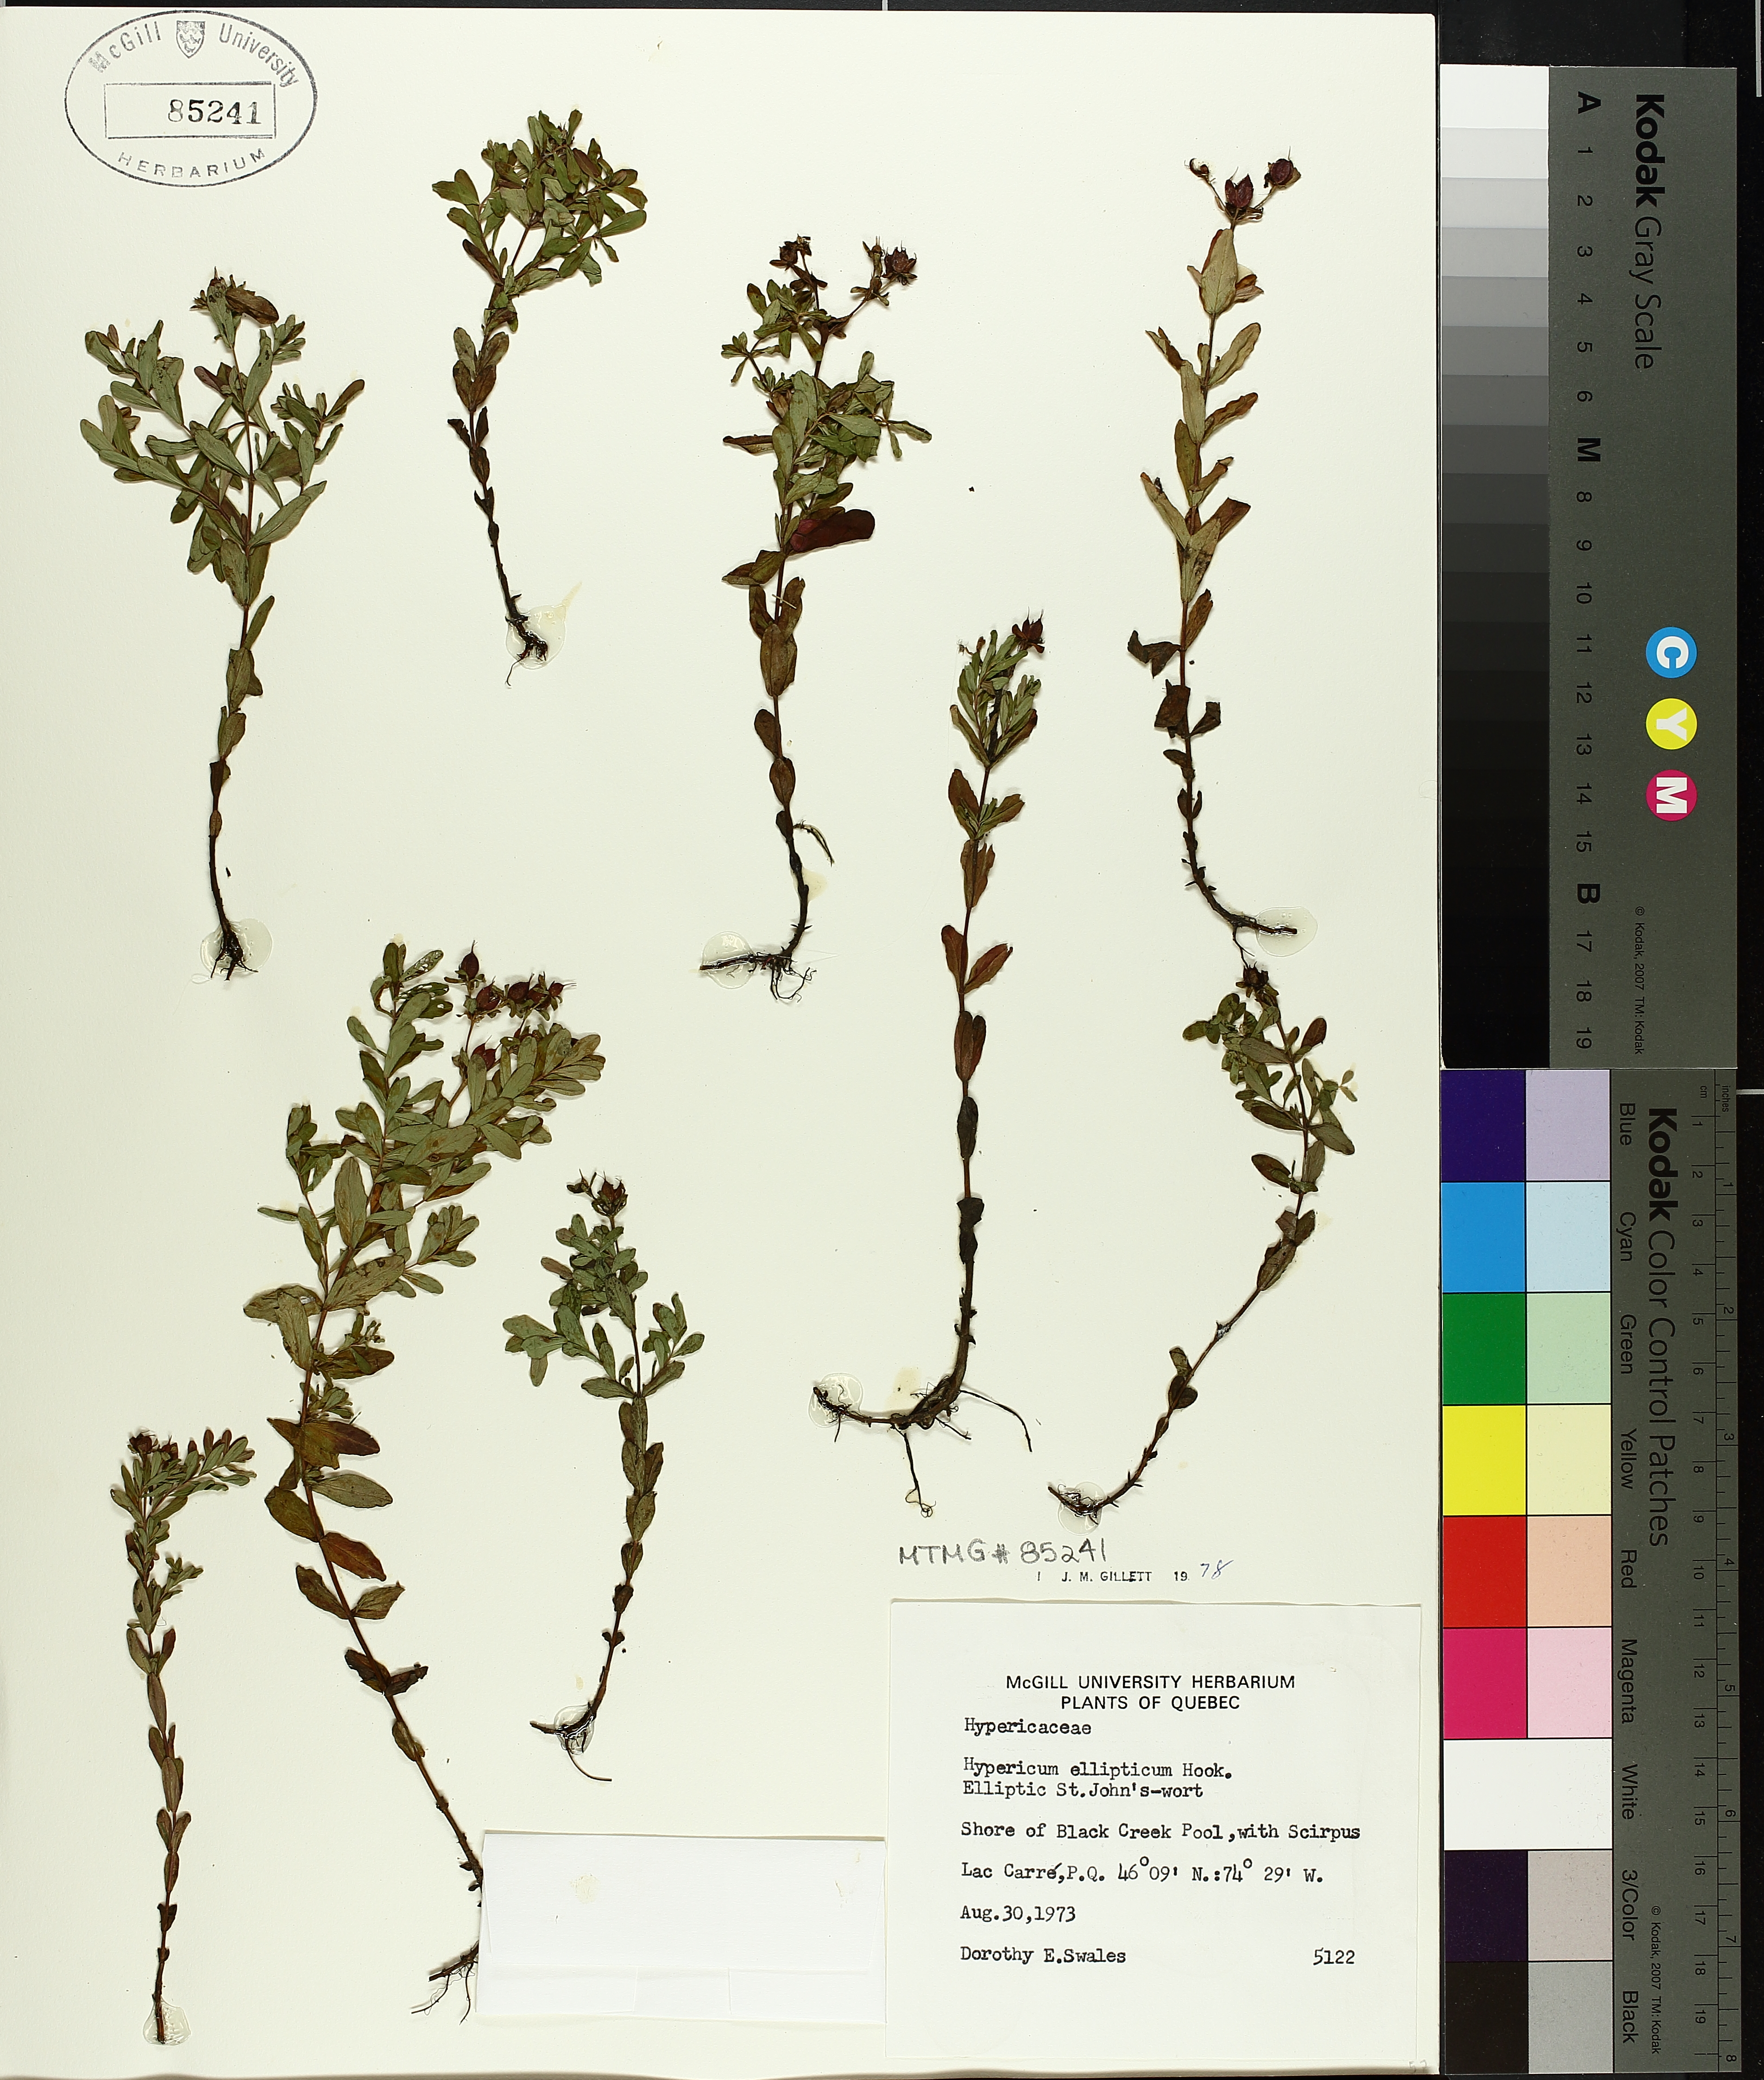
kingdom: Plantae
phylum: Tracheophyta
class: Magnoliopsida
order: Malpighiales
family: Hypericaceae
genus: Hypericum
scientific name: Hypericum ellipticum
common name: Elliptic st. john's-wort
